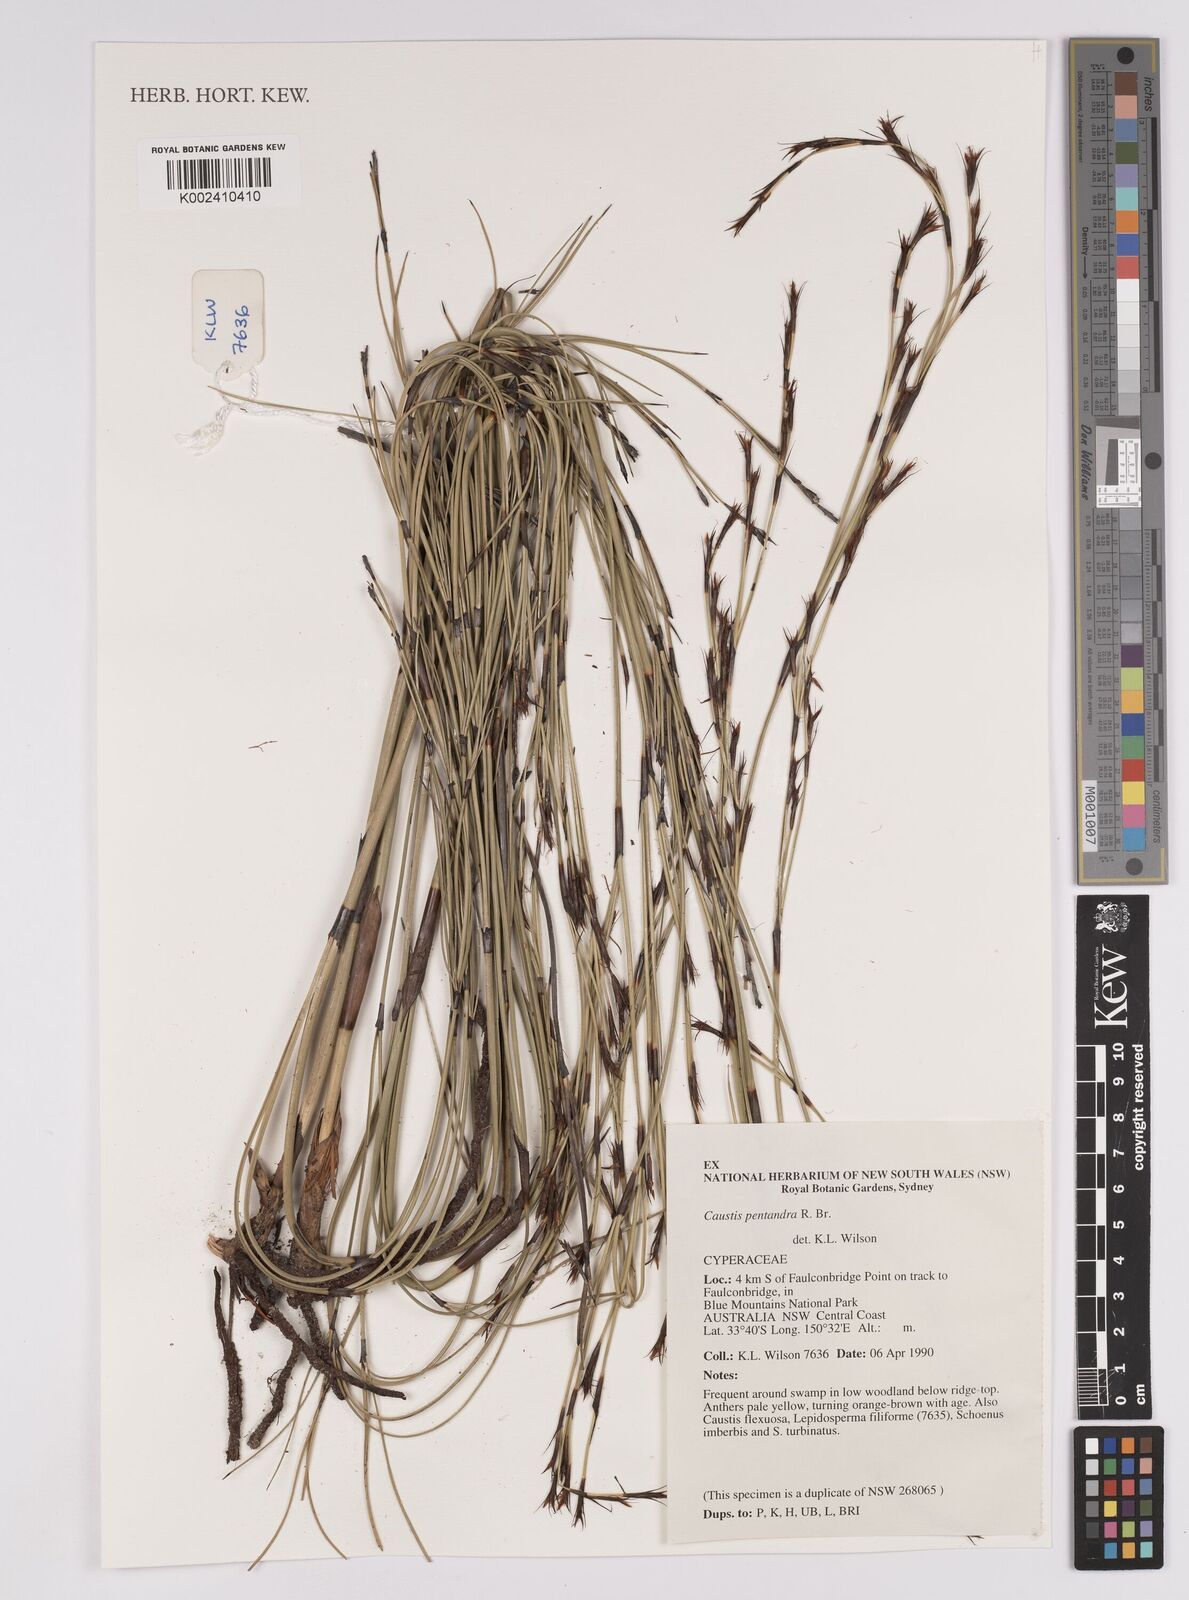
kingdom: Plantae
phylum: Tracheophyta
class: Liliopsida
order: Poales
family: Cyperaceae
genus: Caustis
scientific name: Caustis pentandra
